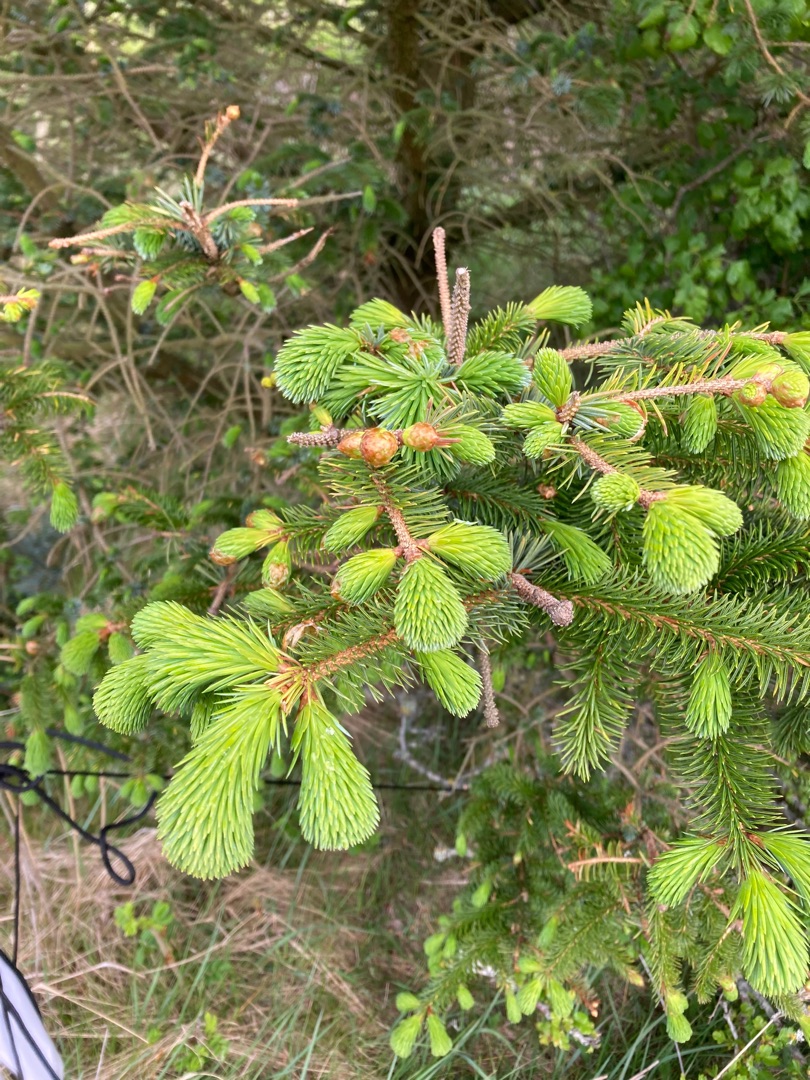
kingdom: Plantae
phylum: Tracheophyta
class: Pinopsida
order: Pinales
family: Pinaceae
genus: Picea
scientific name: Picea
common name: Granslægten
